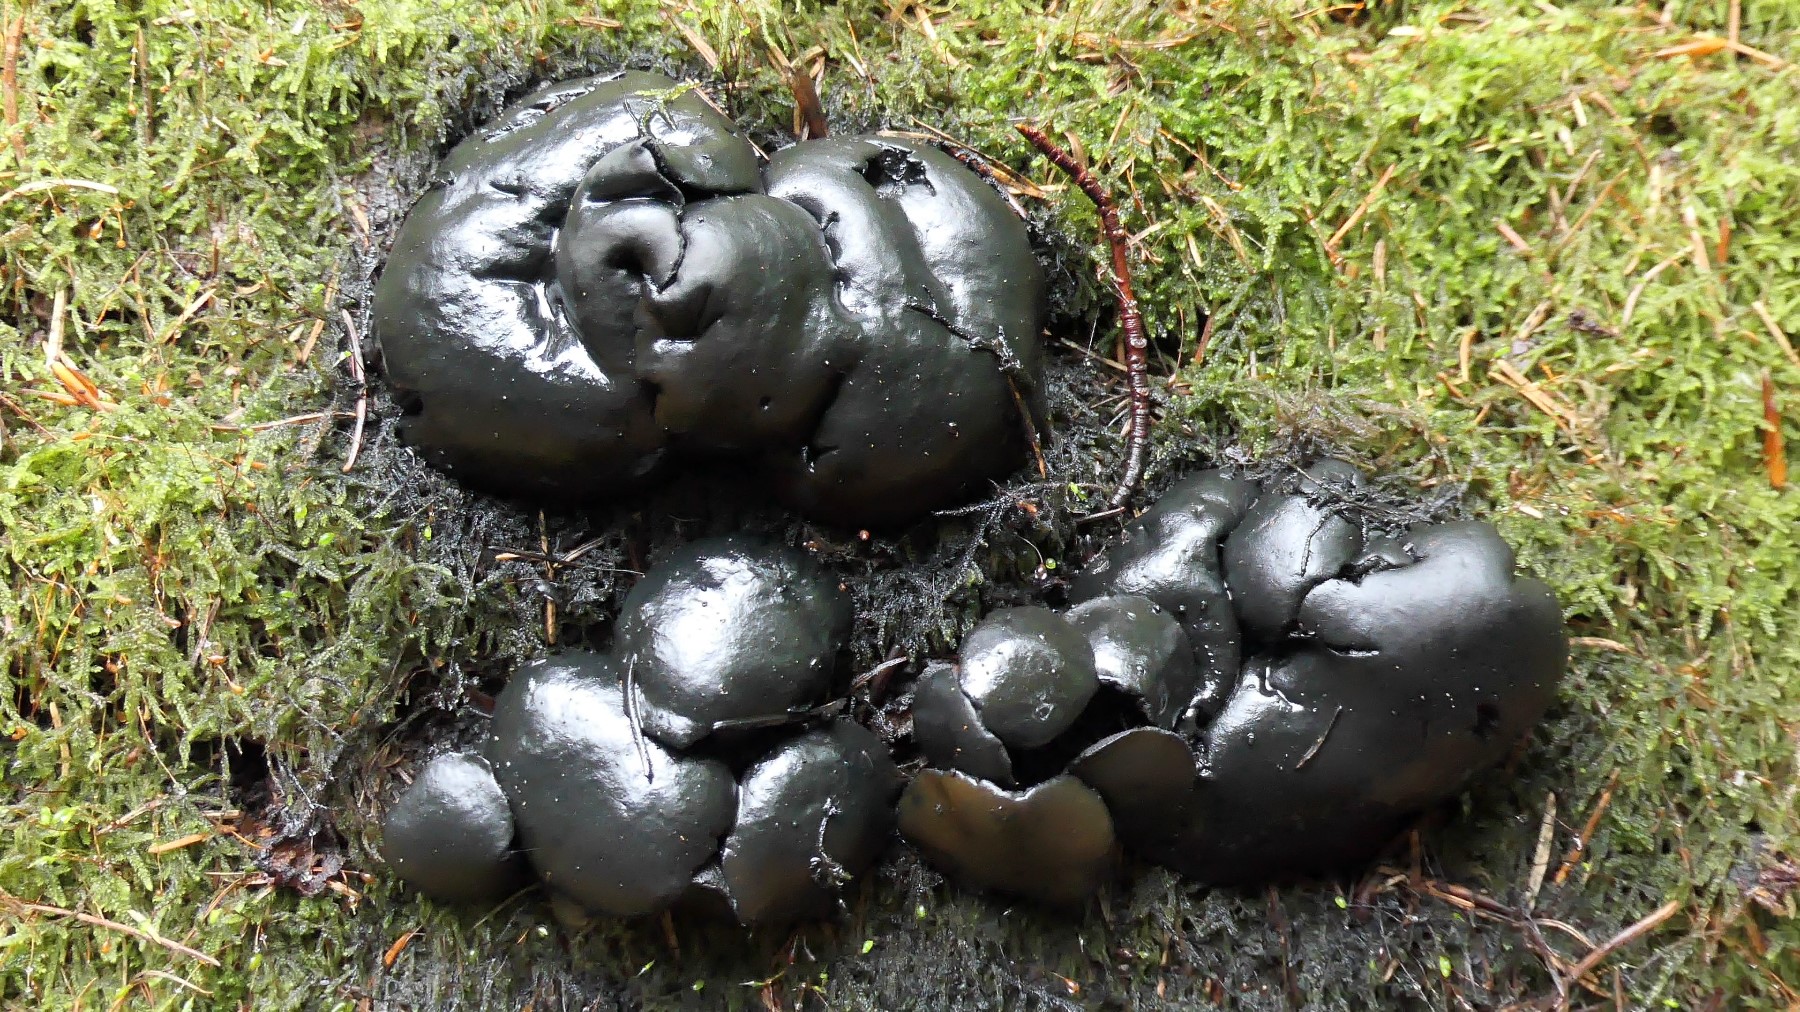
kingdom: Fungi
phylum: Ascomycota
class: Leotiomycetes
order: Phacidiales
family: Phacidiaceae
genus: Bulgaria
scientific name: Bulgaria inquinans
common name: afsmittende topsvamp
